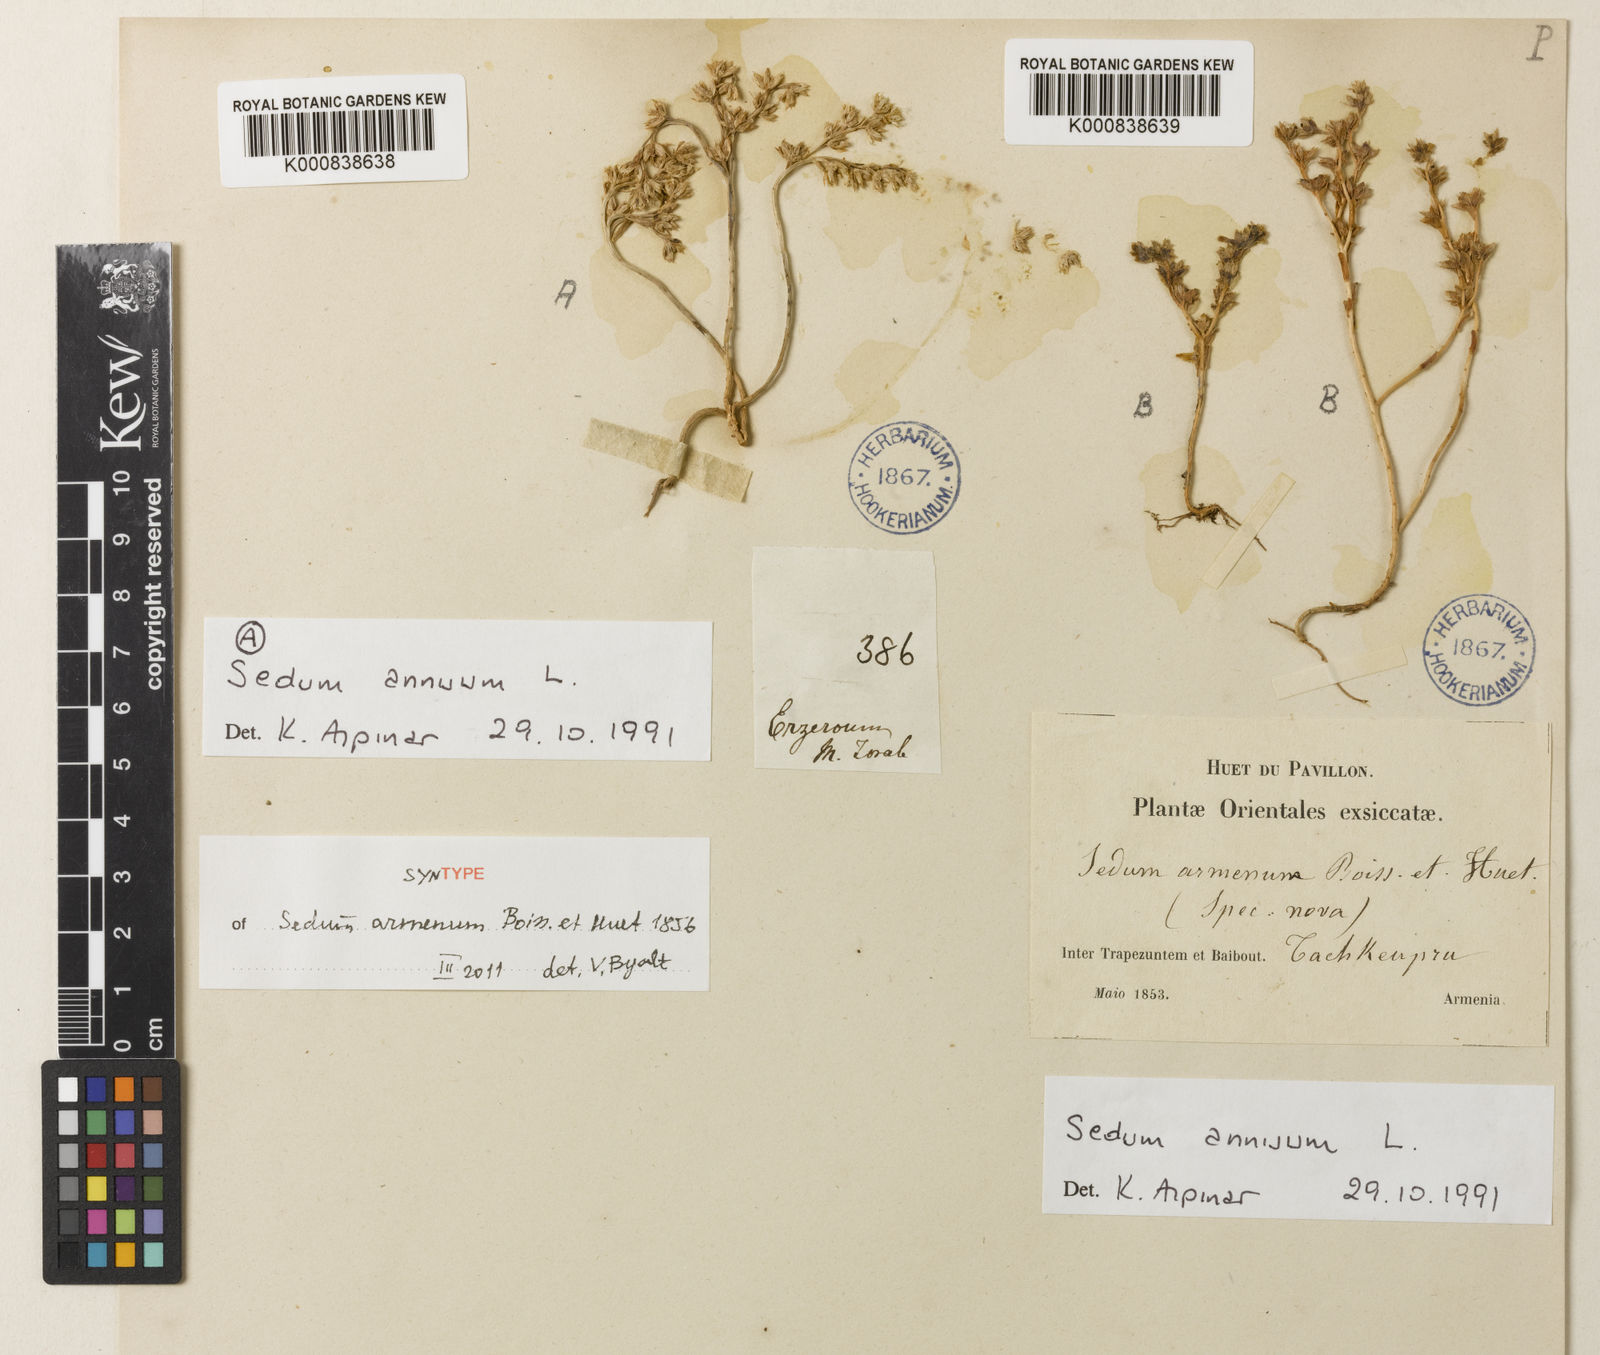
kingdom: Plantae
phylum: Tracheophyta
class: Magnoliopsida
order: Saxifragales
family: Crassulaceae
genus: Sedum
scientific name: Sedum hispanicum
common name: Spanish stonecrop
